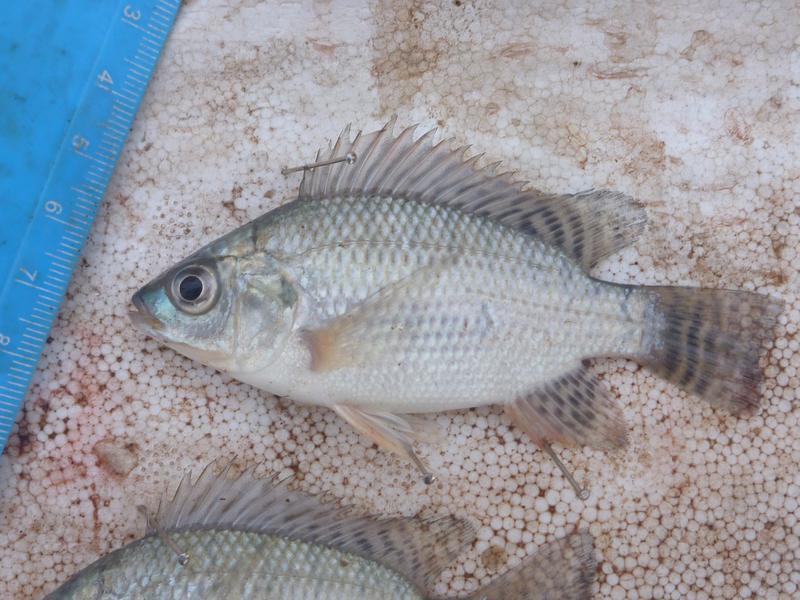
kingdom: Animalia
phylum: Chordata
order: Perciformes
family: Cichlidae
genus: Oreochromis
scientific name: Oreochromis niloticus
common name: Nile tilapia
